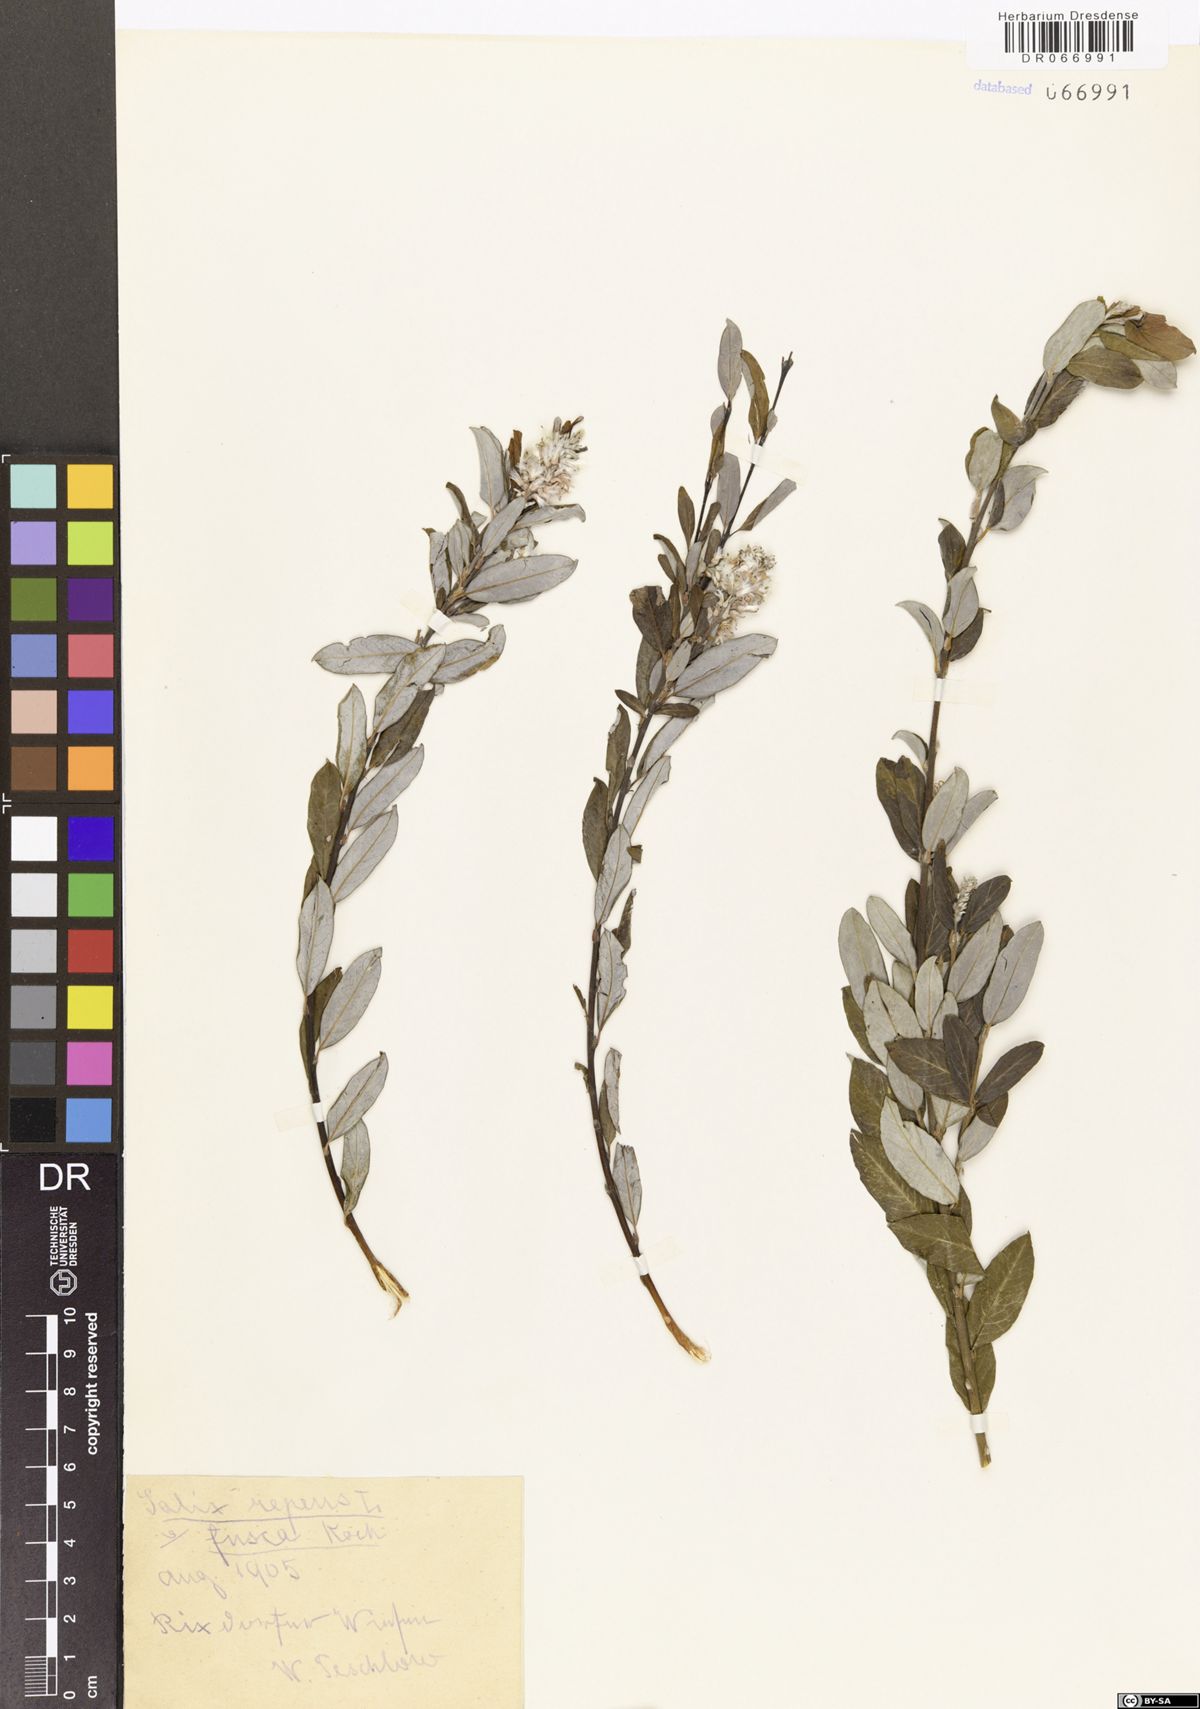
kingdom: Plantae
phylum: Tracheophyta
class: Magnoliopsida
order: Malpighiales
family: Salicaceae
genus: Salix
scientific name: Salix repens
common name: Creeping willow
